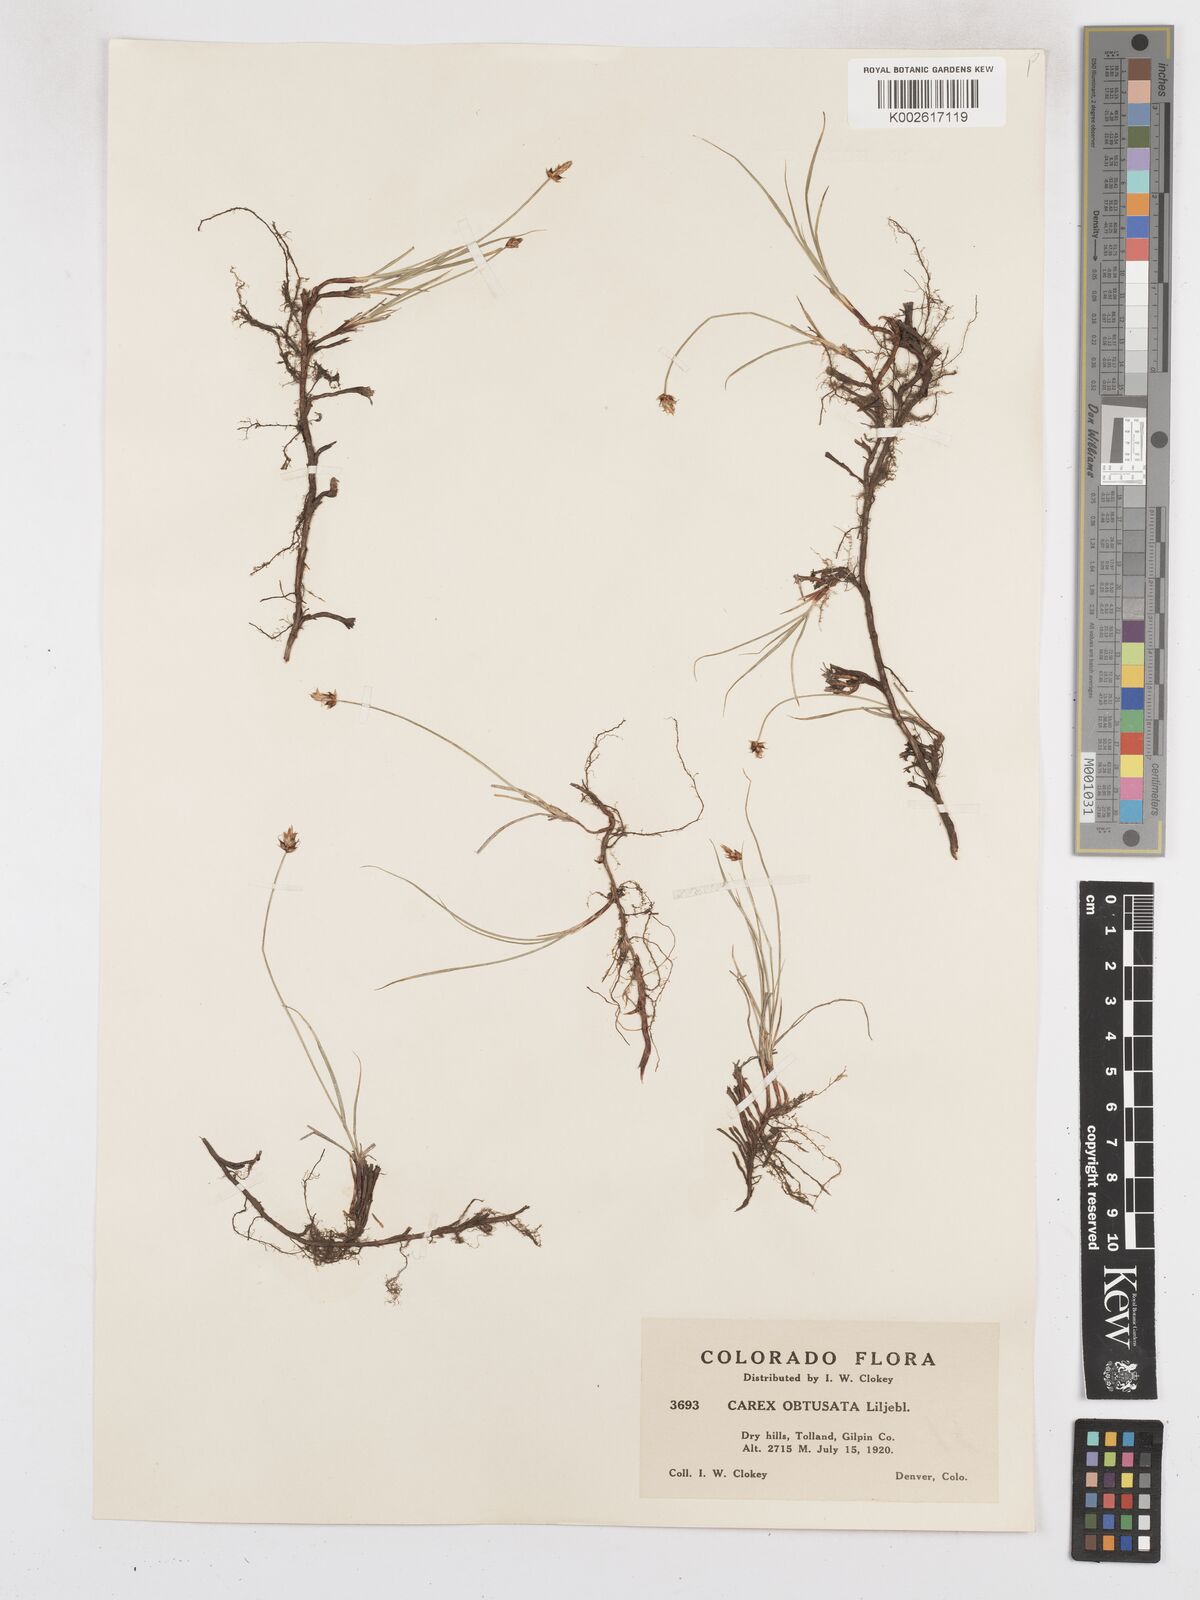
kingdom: Plantae
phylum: Tracheophyta
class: Liliopsida
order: Poales
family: Cyperaceae
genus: Carex
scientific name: Carex obtusata
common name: Blunt sedge
